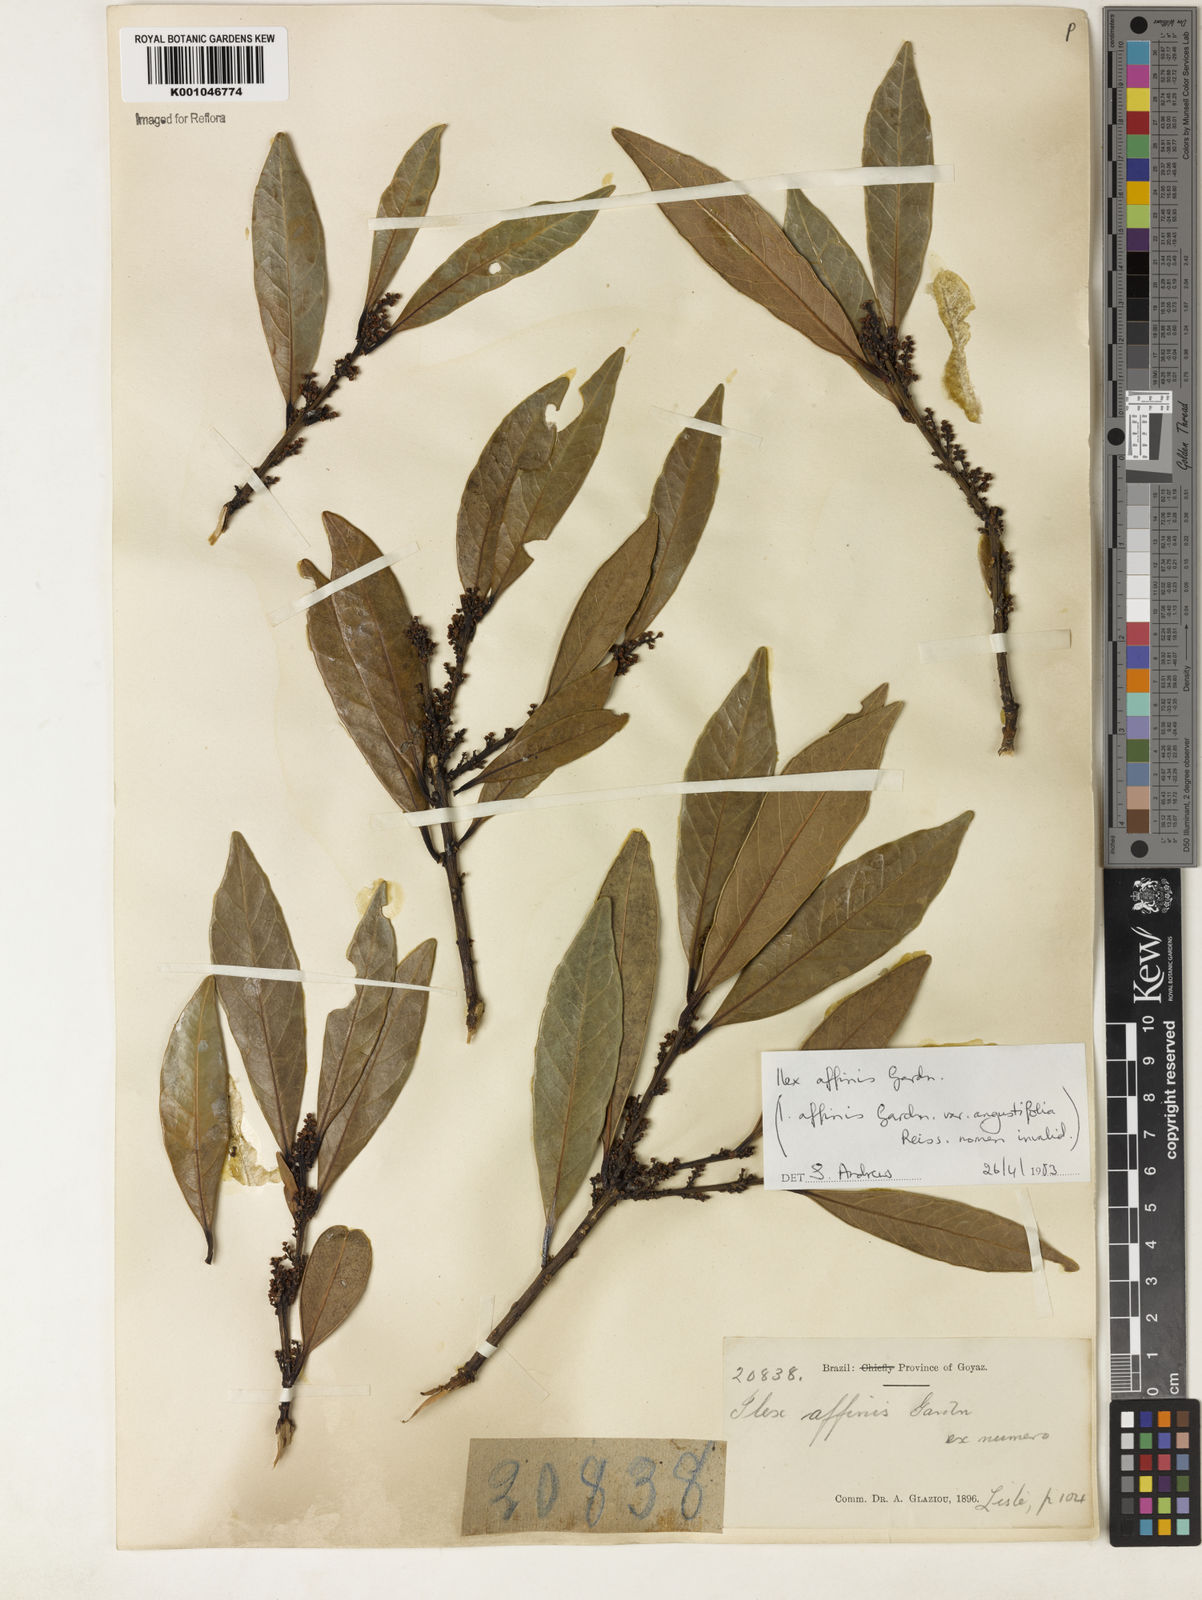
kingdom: Plantae
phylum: Tracheophyta
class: Magnoliopsida
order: Aquifoliales
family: Aquifoliaceae
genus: Ilex
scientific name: Ilex affinis
